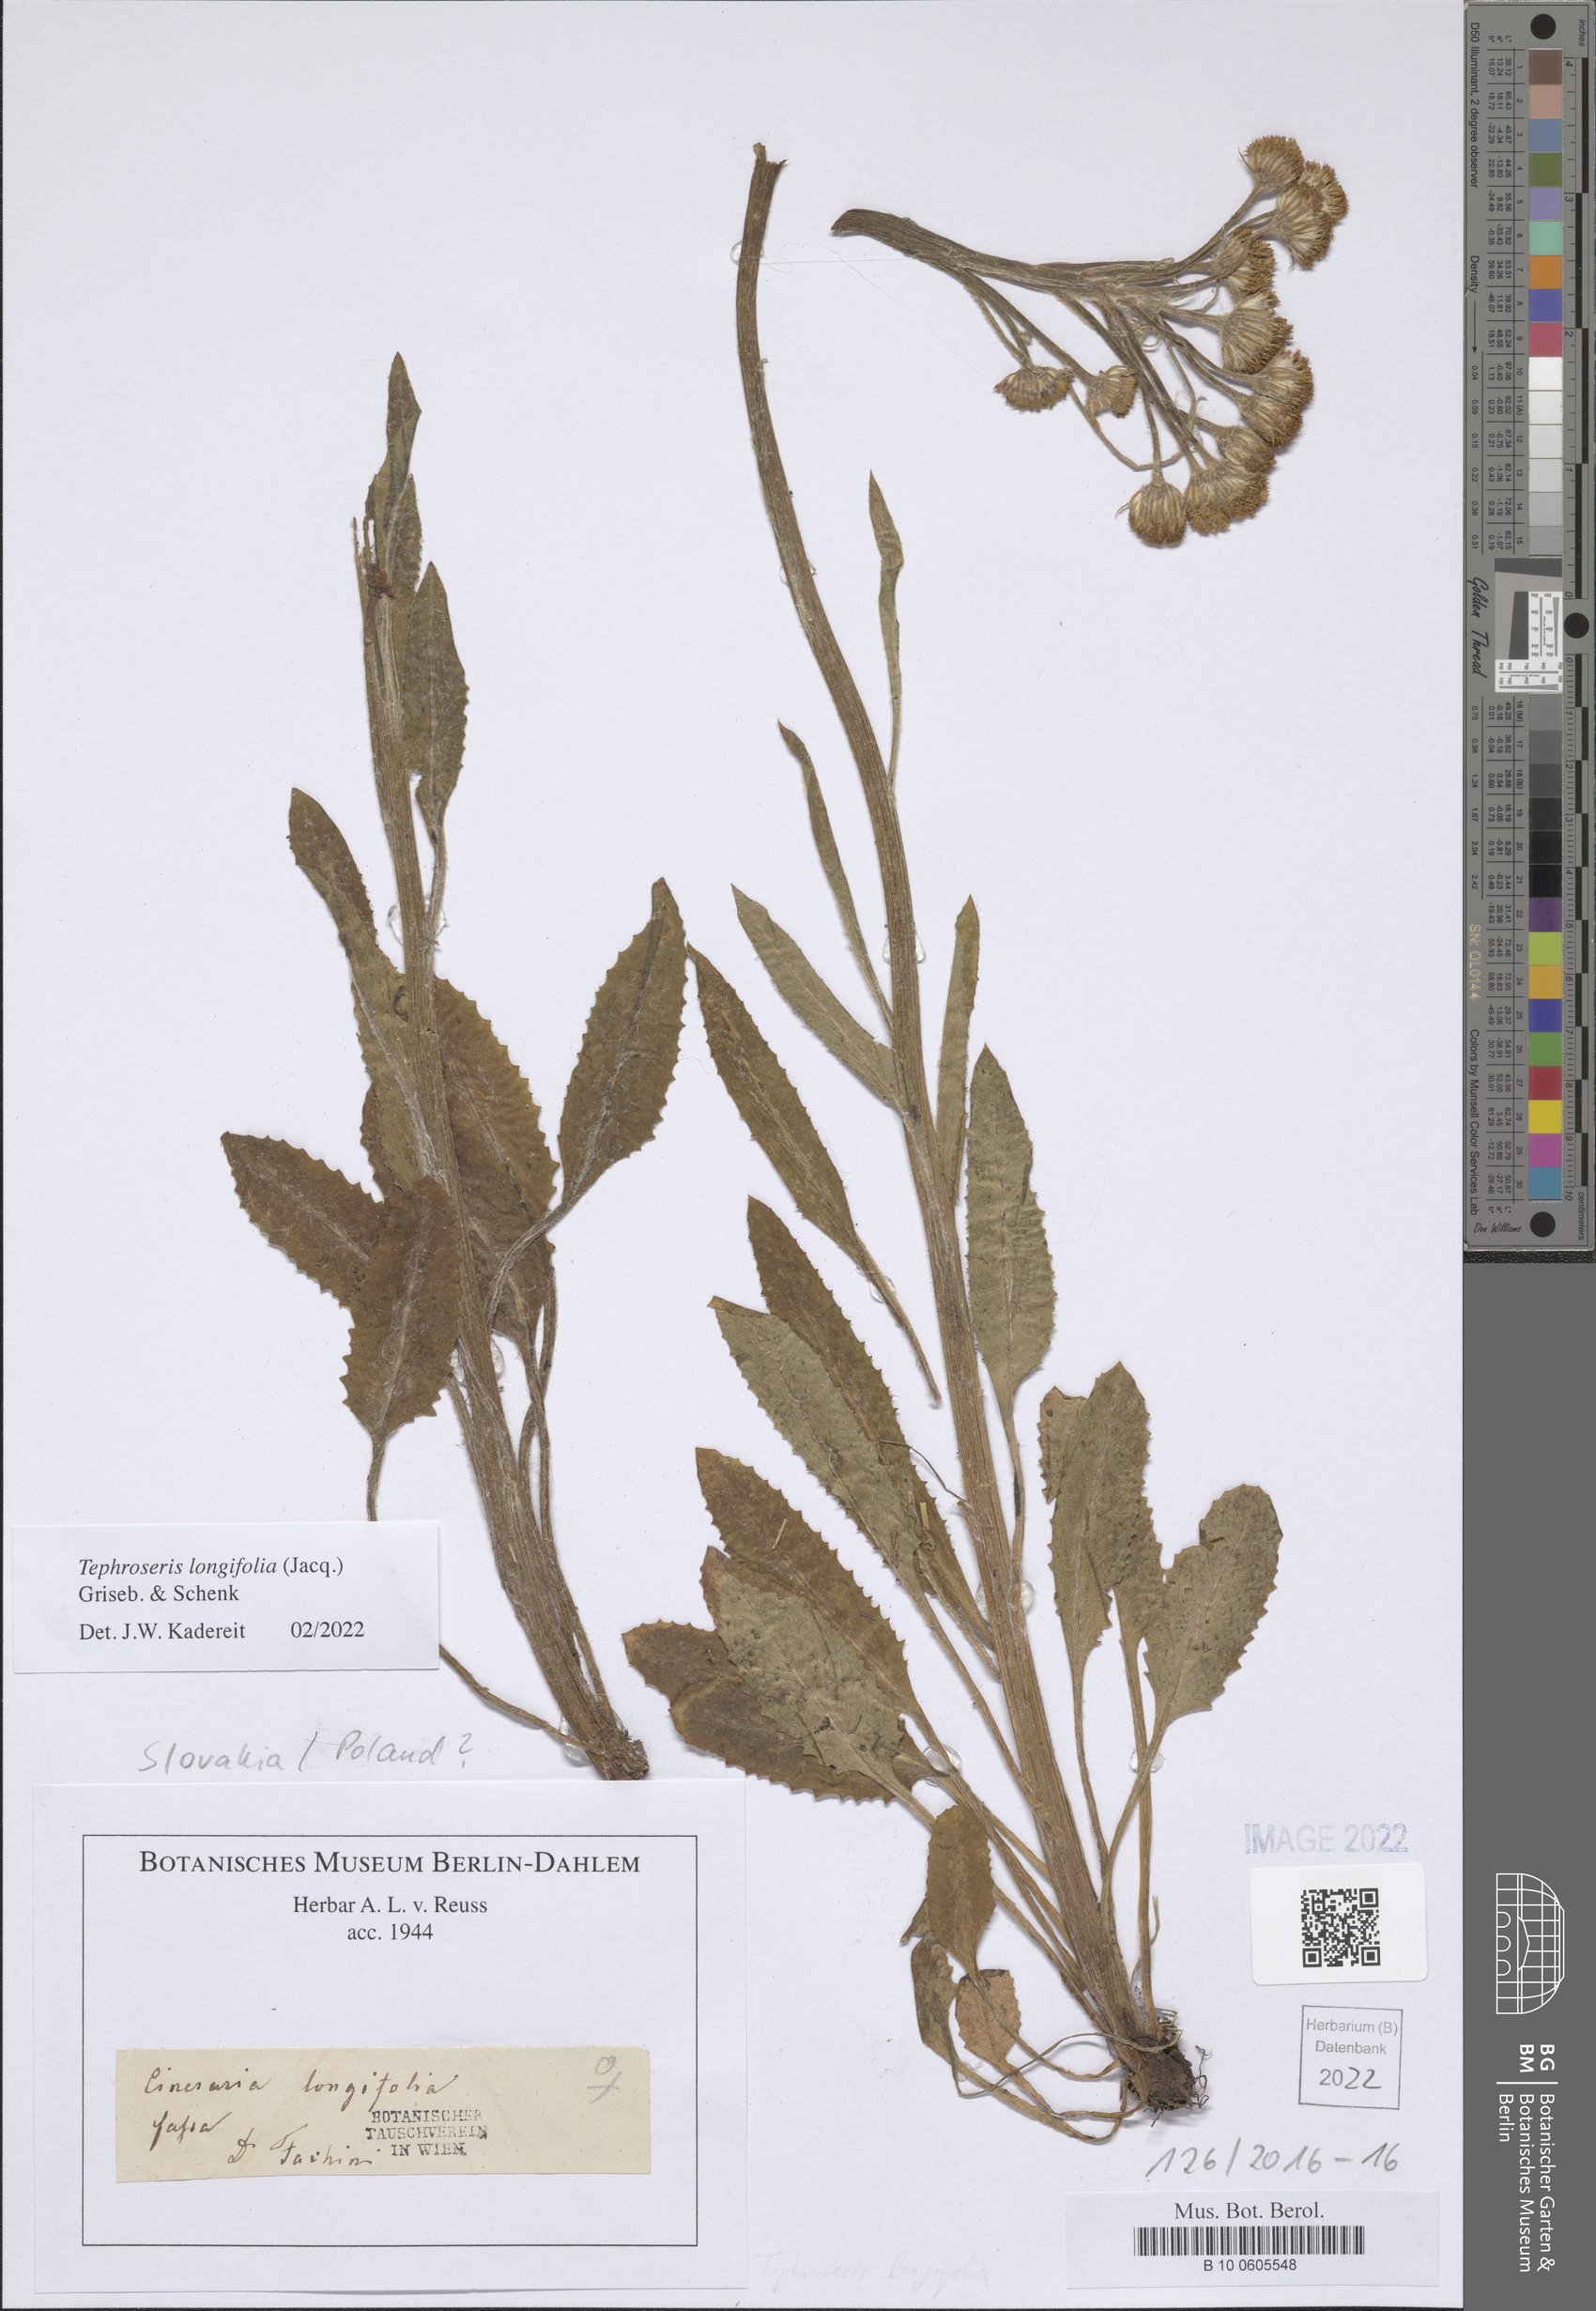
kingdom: Plantae
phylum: Tracheophyta
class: Magnoliopsida
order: Asterales
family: Asteraceae
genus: Tephroseris
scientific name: Tephroseris longifolia
